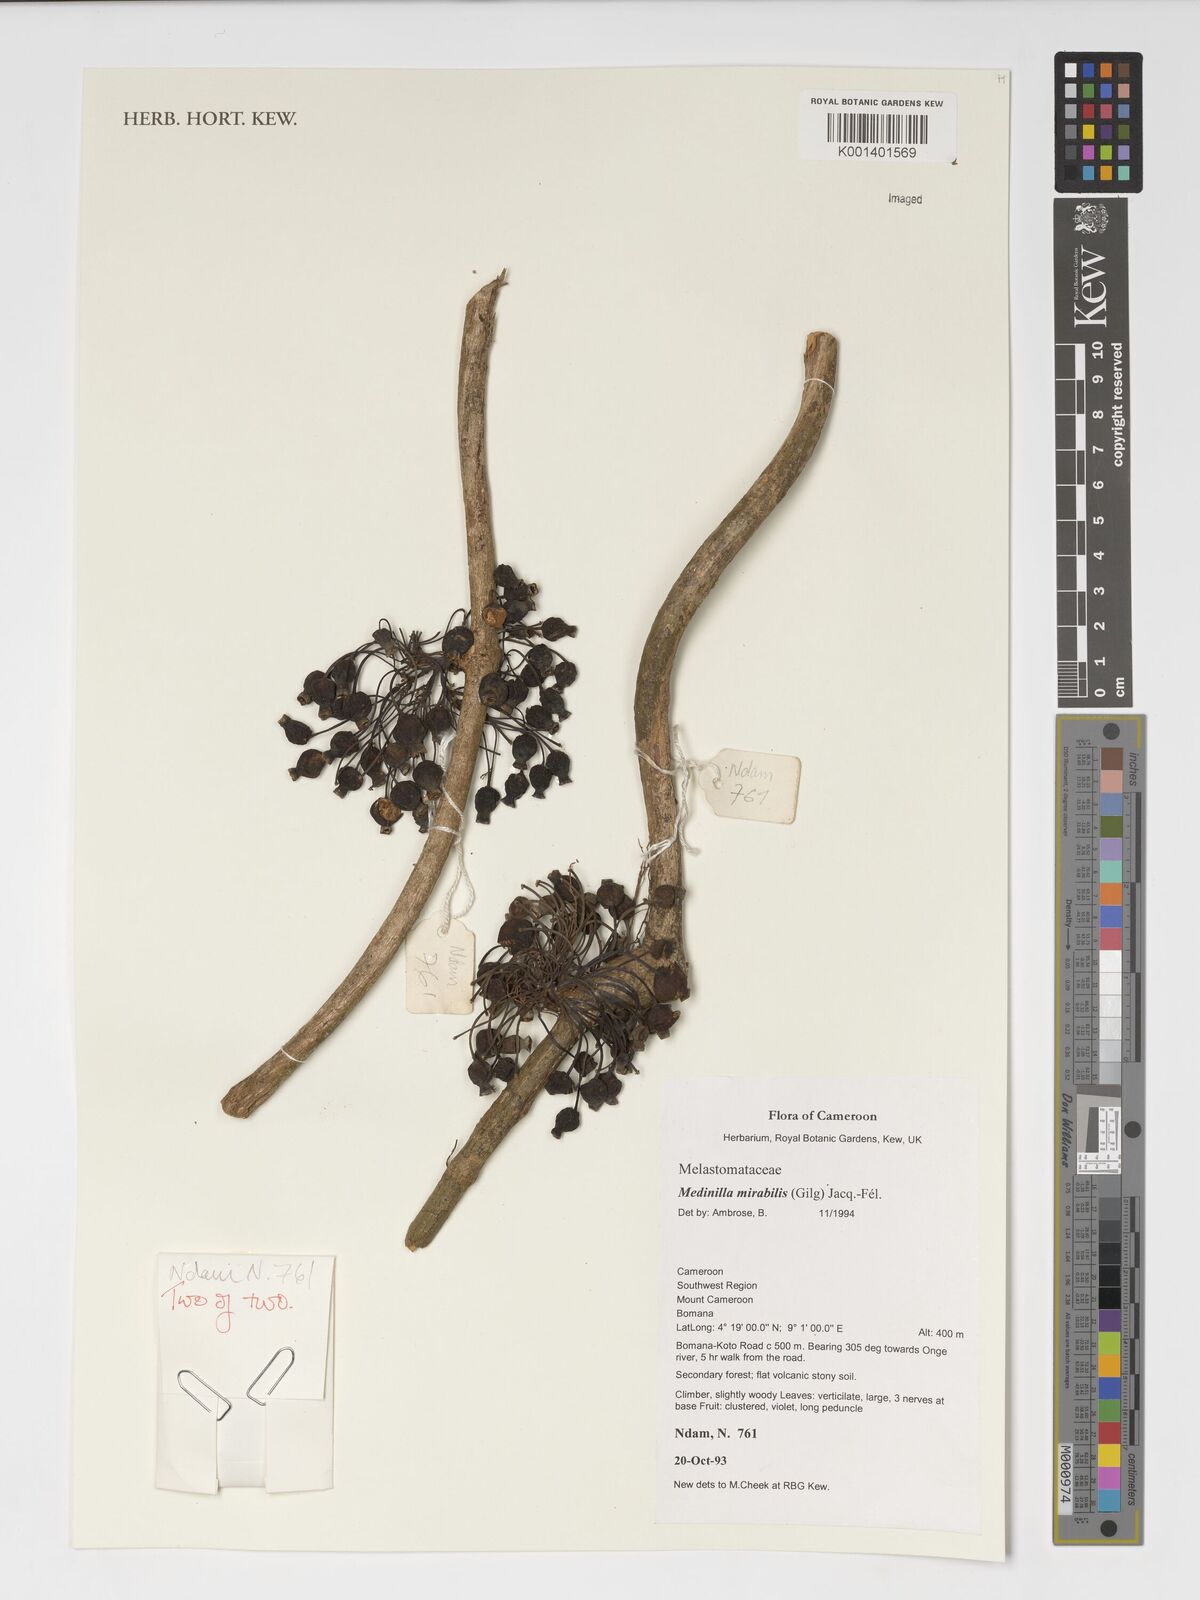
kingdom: Plantae
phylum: Tracheophyta
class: Magnoliopsida
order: Myrtales
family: Melastomataceae
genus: Medinilla
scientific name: Medinilla mirabile
